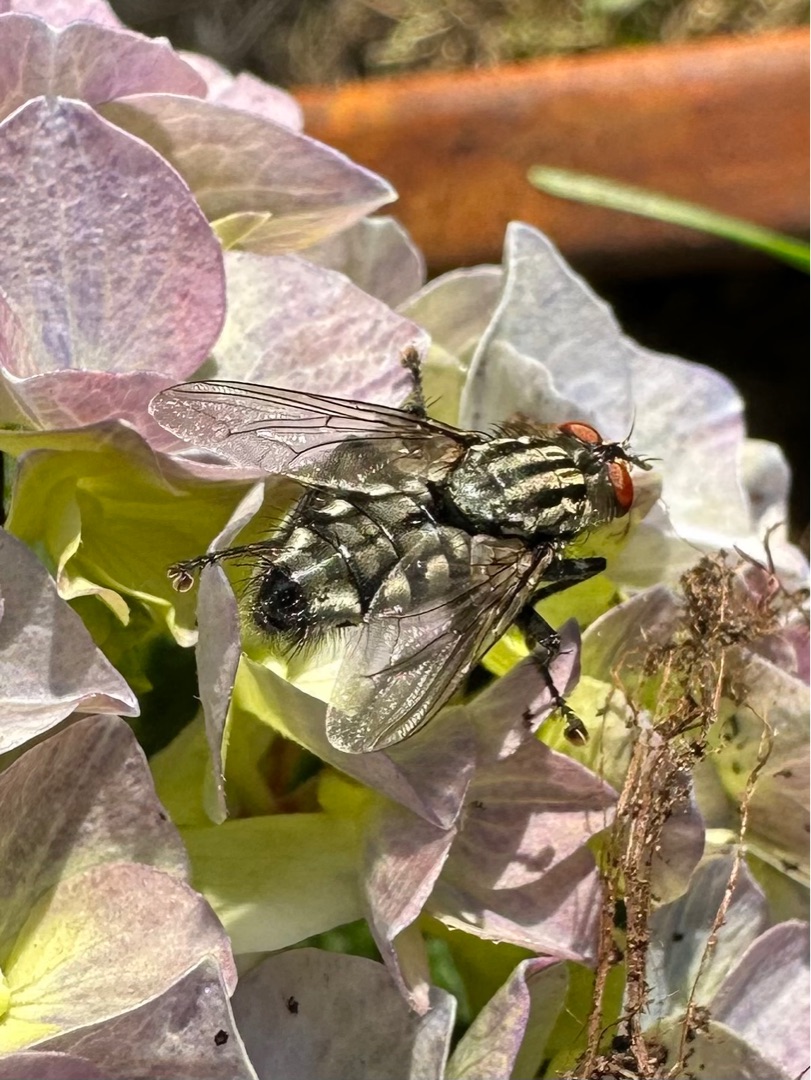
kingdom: Animalia
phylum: Arthropoda
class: Insecta
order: Diptera
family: Sarcophagidae
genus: Sarcophaga
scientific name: Sarcophaga
